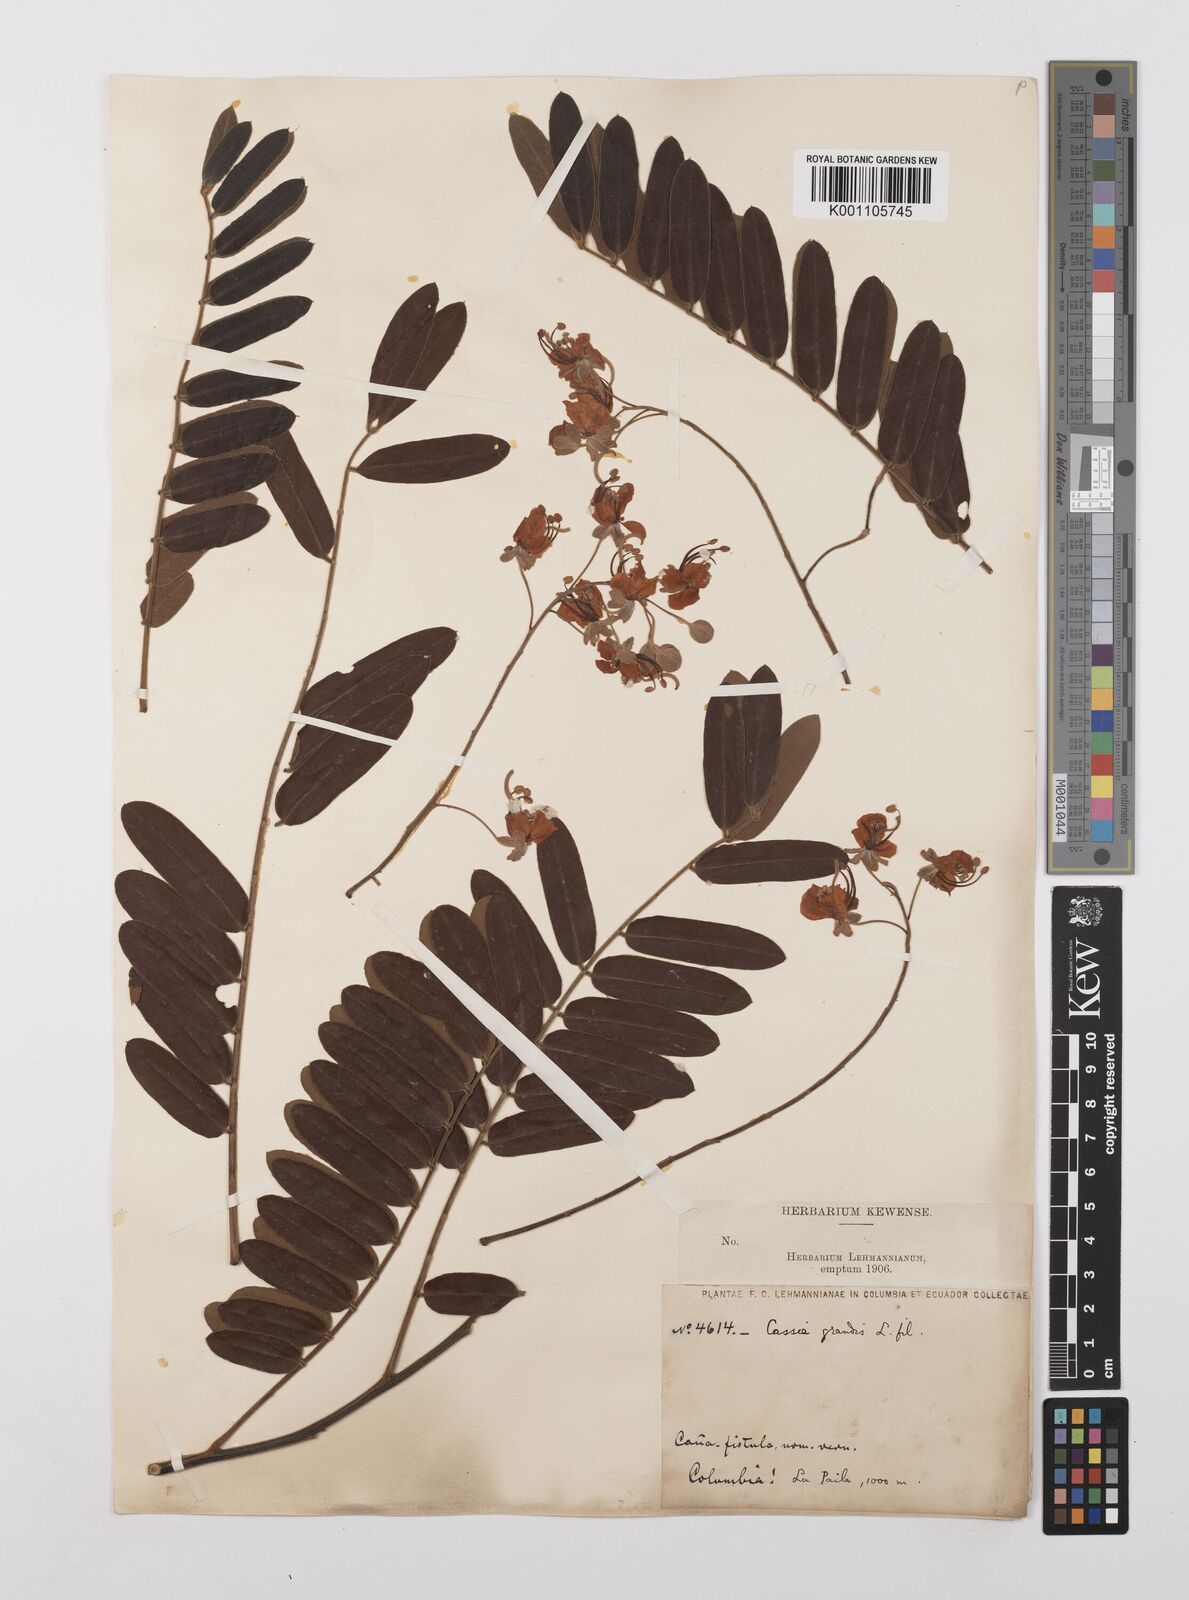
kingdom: Plantae
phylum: Tracheophyta
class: Magnoliopsida
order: Fabales
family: Fabaceae
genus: Cassia
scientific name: Cassia grandis
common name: Appleblossom cassia
